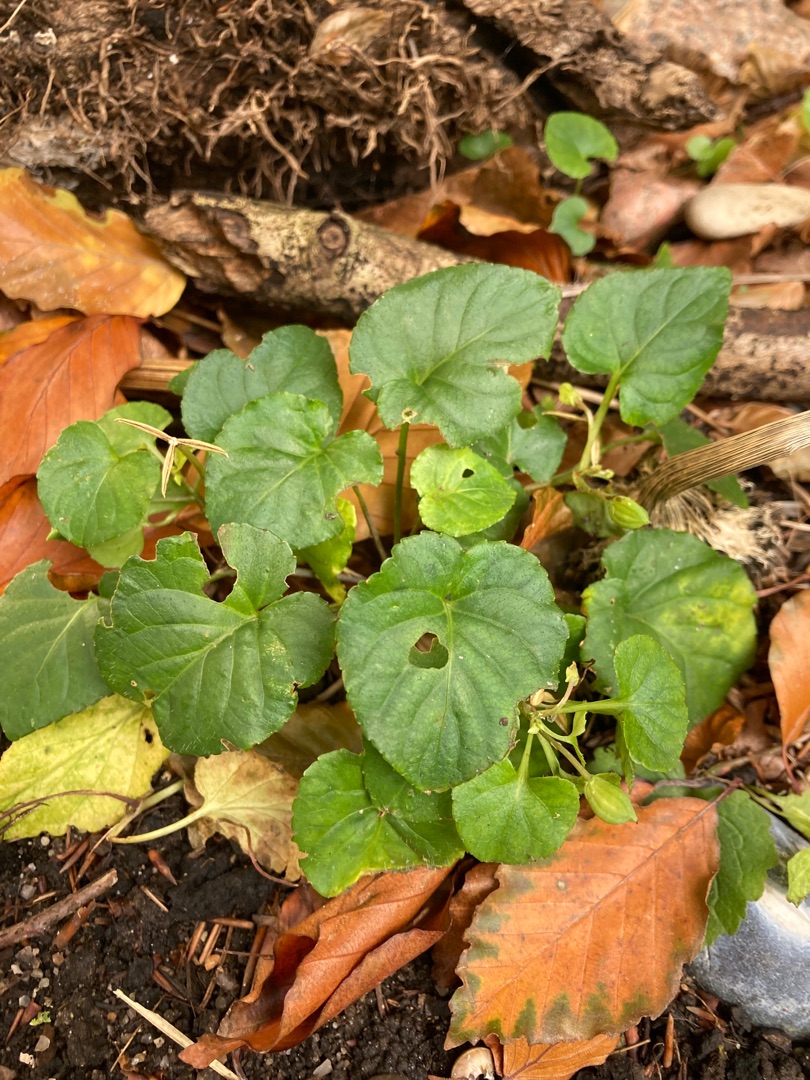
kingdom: Plantae
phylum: Tracheophyta
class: Magnoliopsida
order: Malpighiales
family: Violaceae
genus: Viola
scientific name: Viola odorata
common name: Marts-viol
